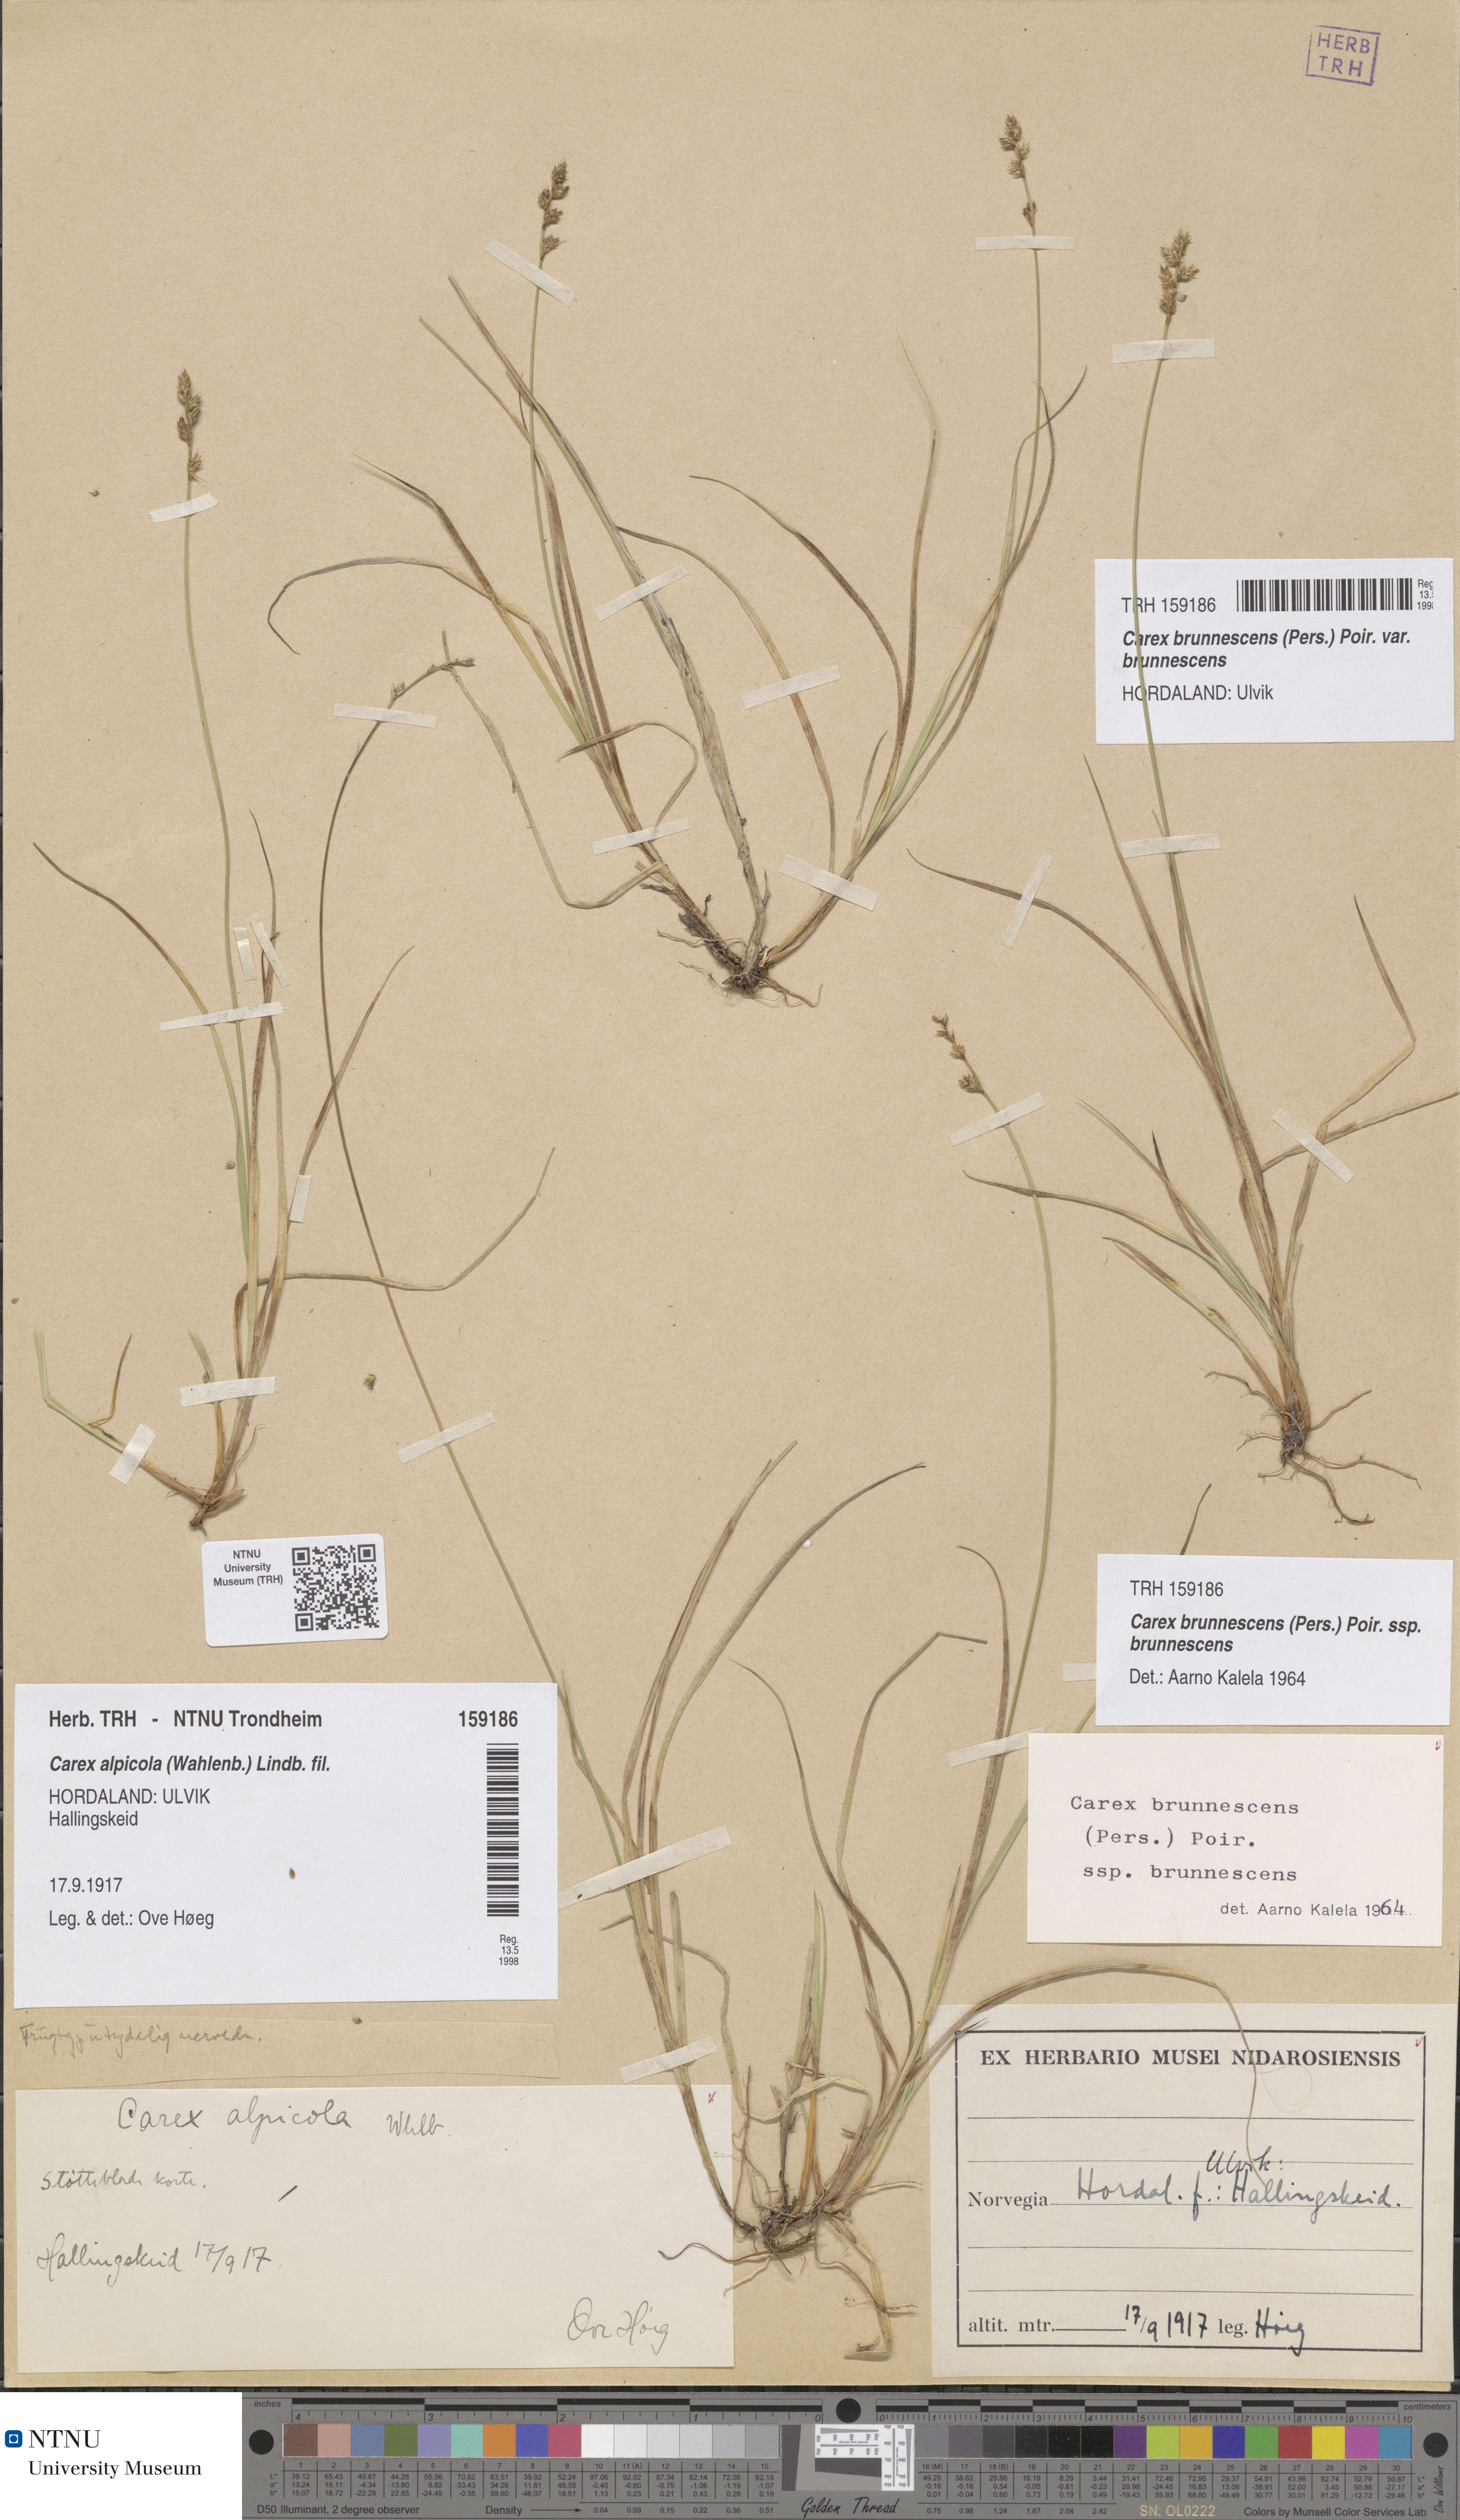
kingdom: Plantae
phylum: Tracheophyta
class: Liliopsida
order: Poales
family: Cyperaceae
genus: Carex
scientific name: Carex brunnescens
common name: Brown sedge
